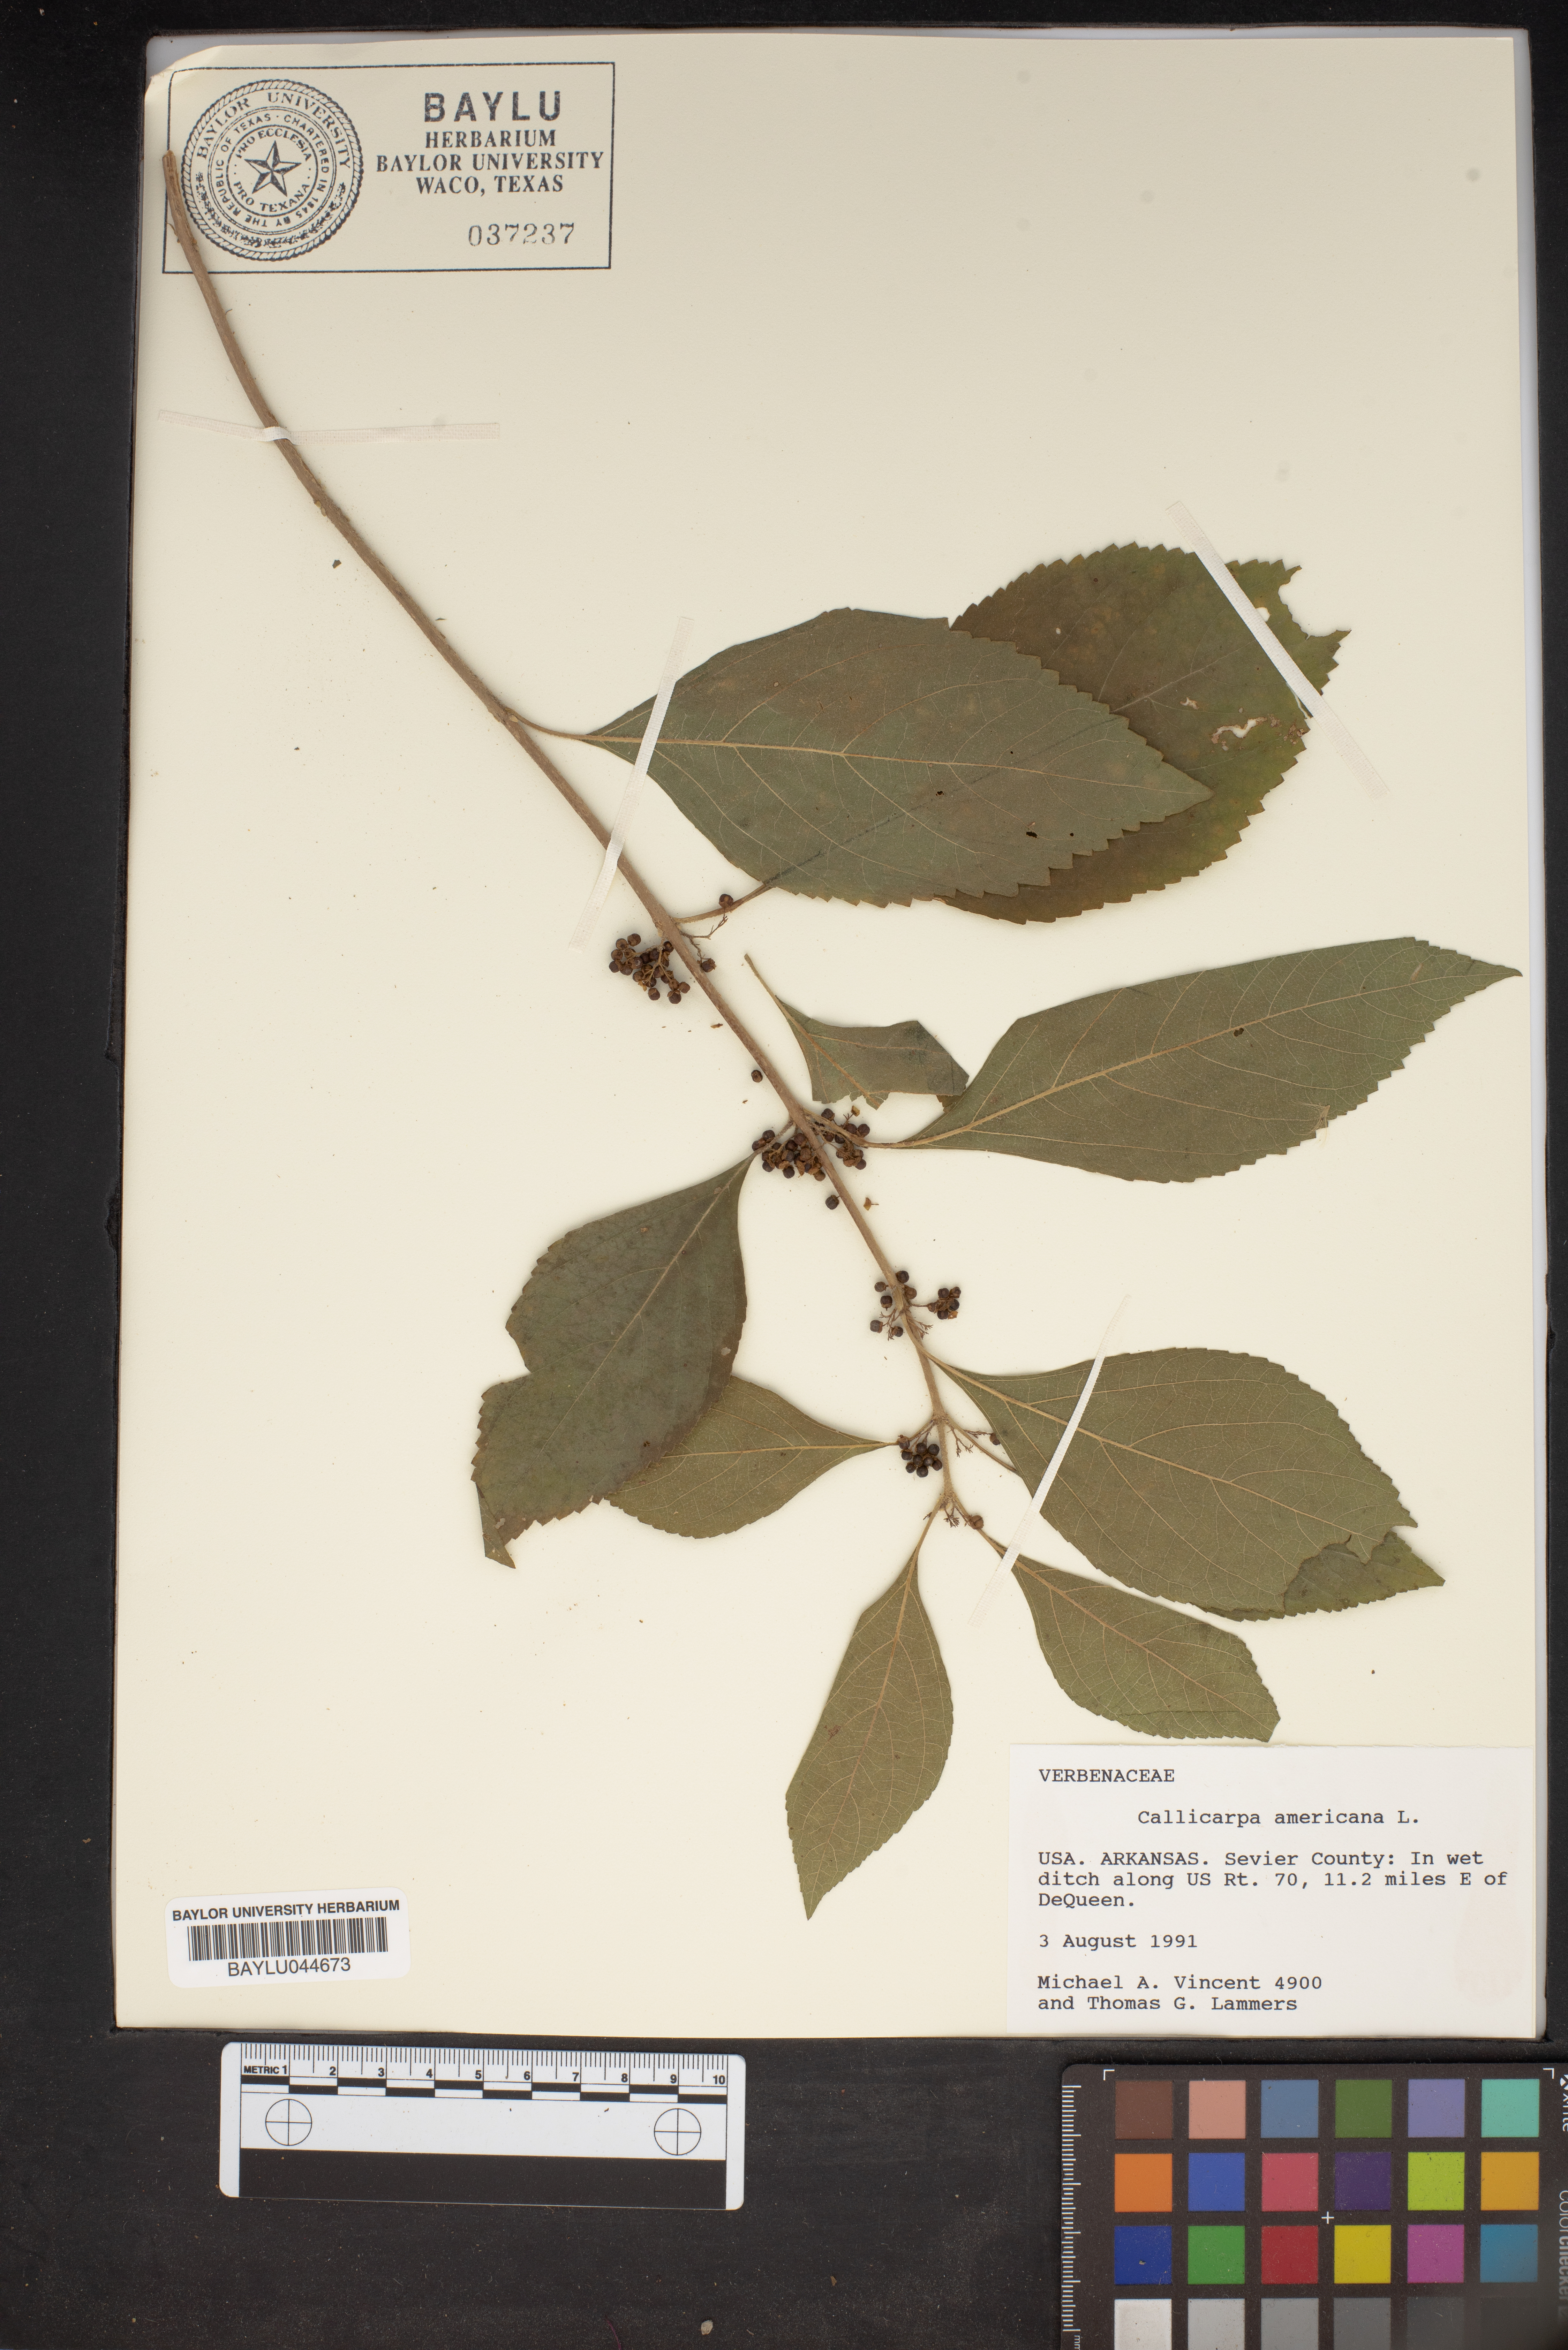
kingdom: Plantae
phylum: Tracheophyta
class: Magnoliopsida
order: Lamiales
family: Lamiaceae
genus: Callicarpa
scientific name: Callicarpa americana
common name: American beautyberry
